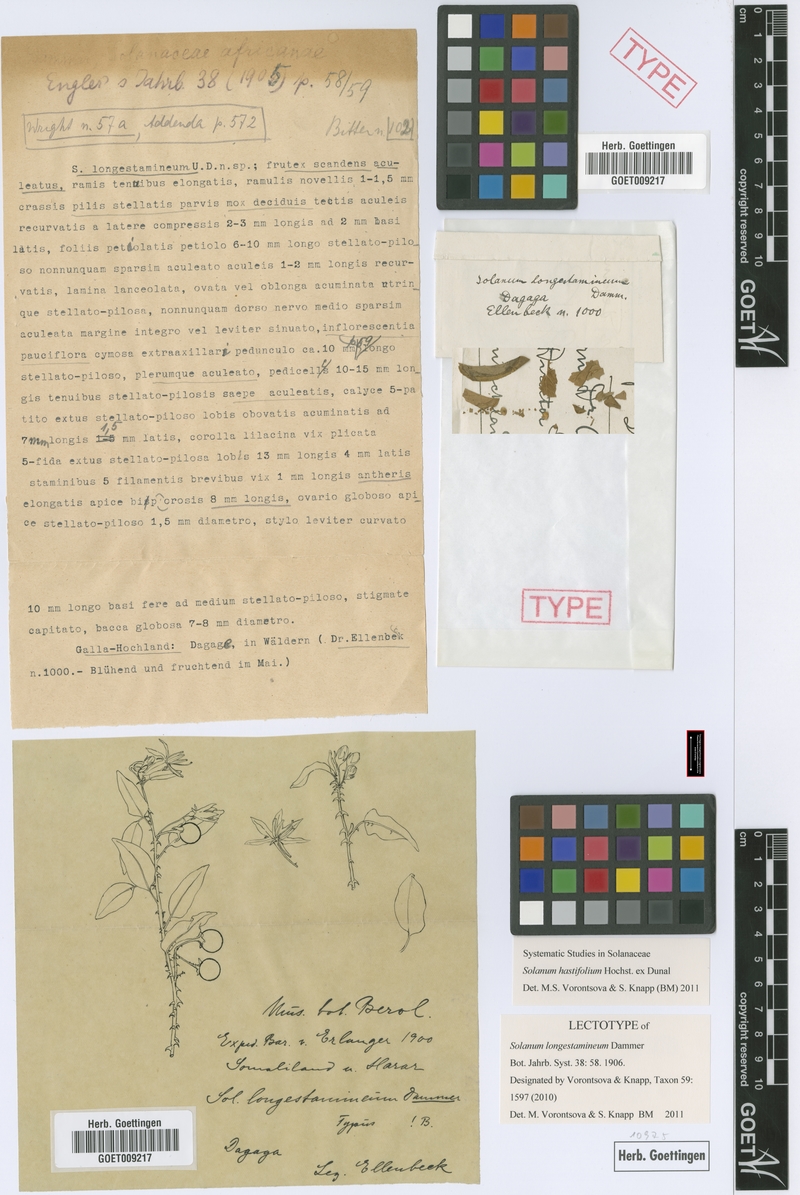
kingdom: Plantae
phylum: Tracheophyta
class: Magnoliopsida
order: Solanales
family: Solanaceae
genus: Solanum
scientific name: Solanum hastifolium
